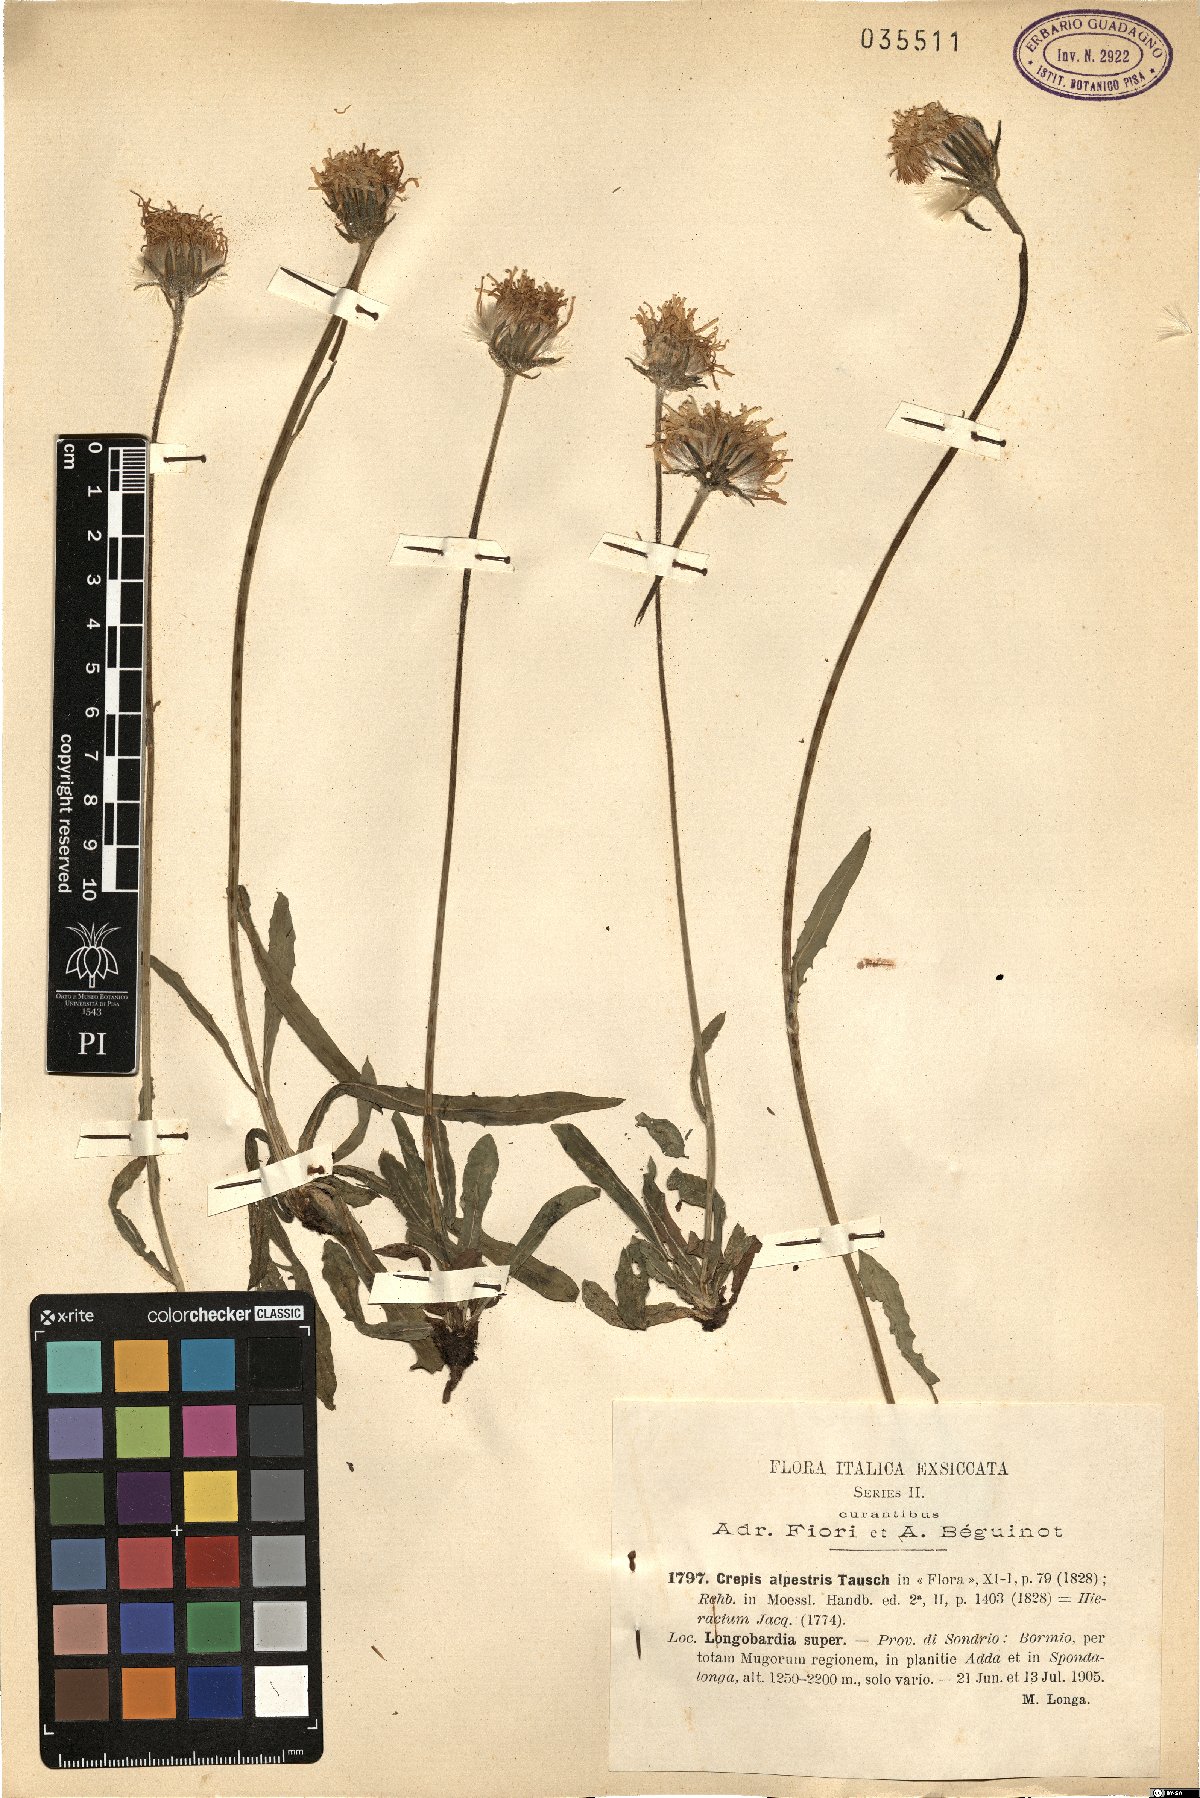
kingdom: Plantae
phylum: Tracheophyta
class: Magnoliopsida
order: Asterales
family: Asteraceae
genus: Crepis
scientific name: Crepis alpestris
